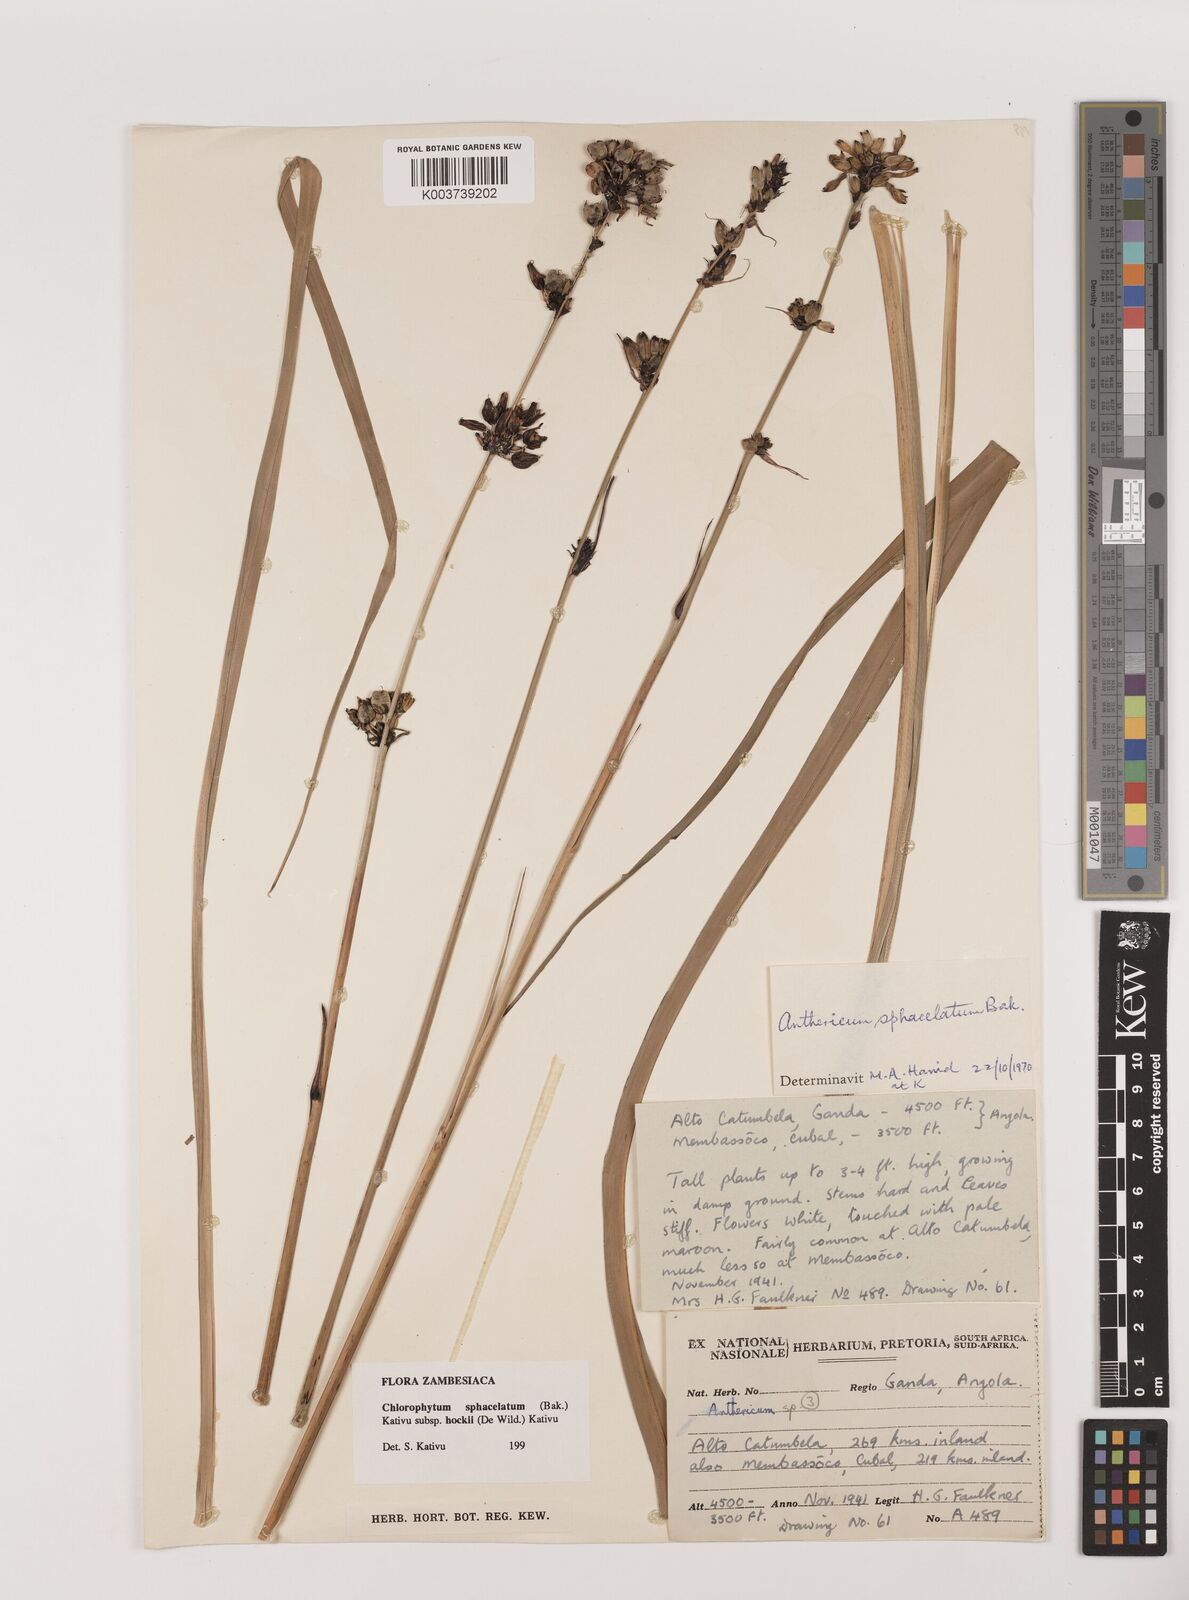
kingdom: Plantae
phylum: Tracheophyta
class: Liliopsida
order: Asparagales
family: Asparagaceae
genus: Chlorophytum
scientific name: Chlorophytum sphacelatum
